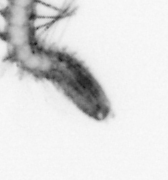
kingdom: Animalia
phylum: Annelida
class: Polychaeta
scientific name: Polychaeta
